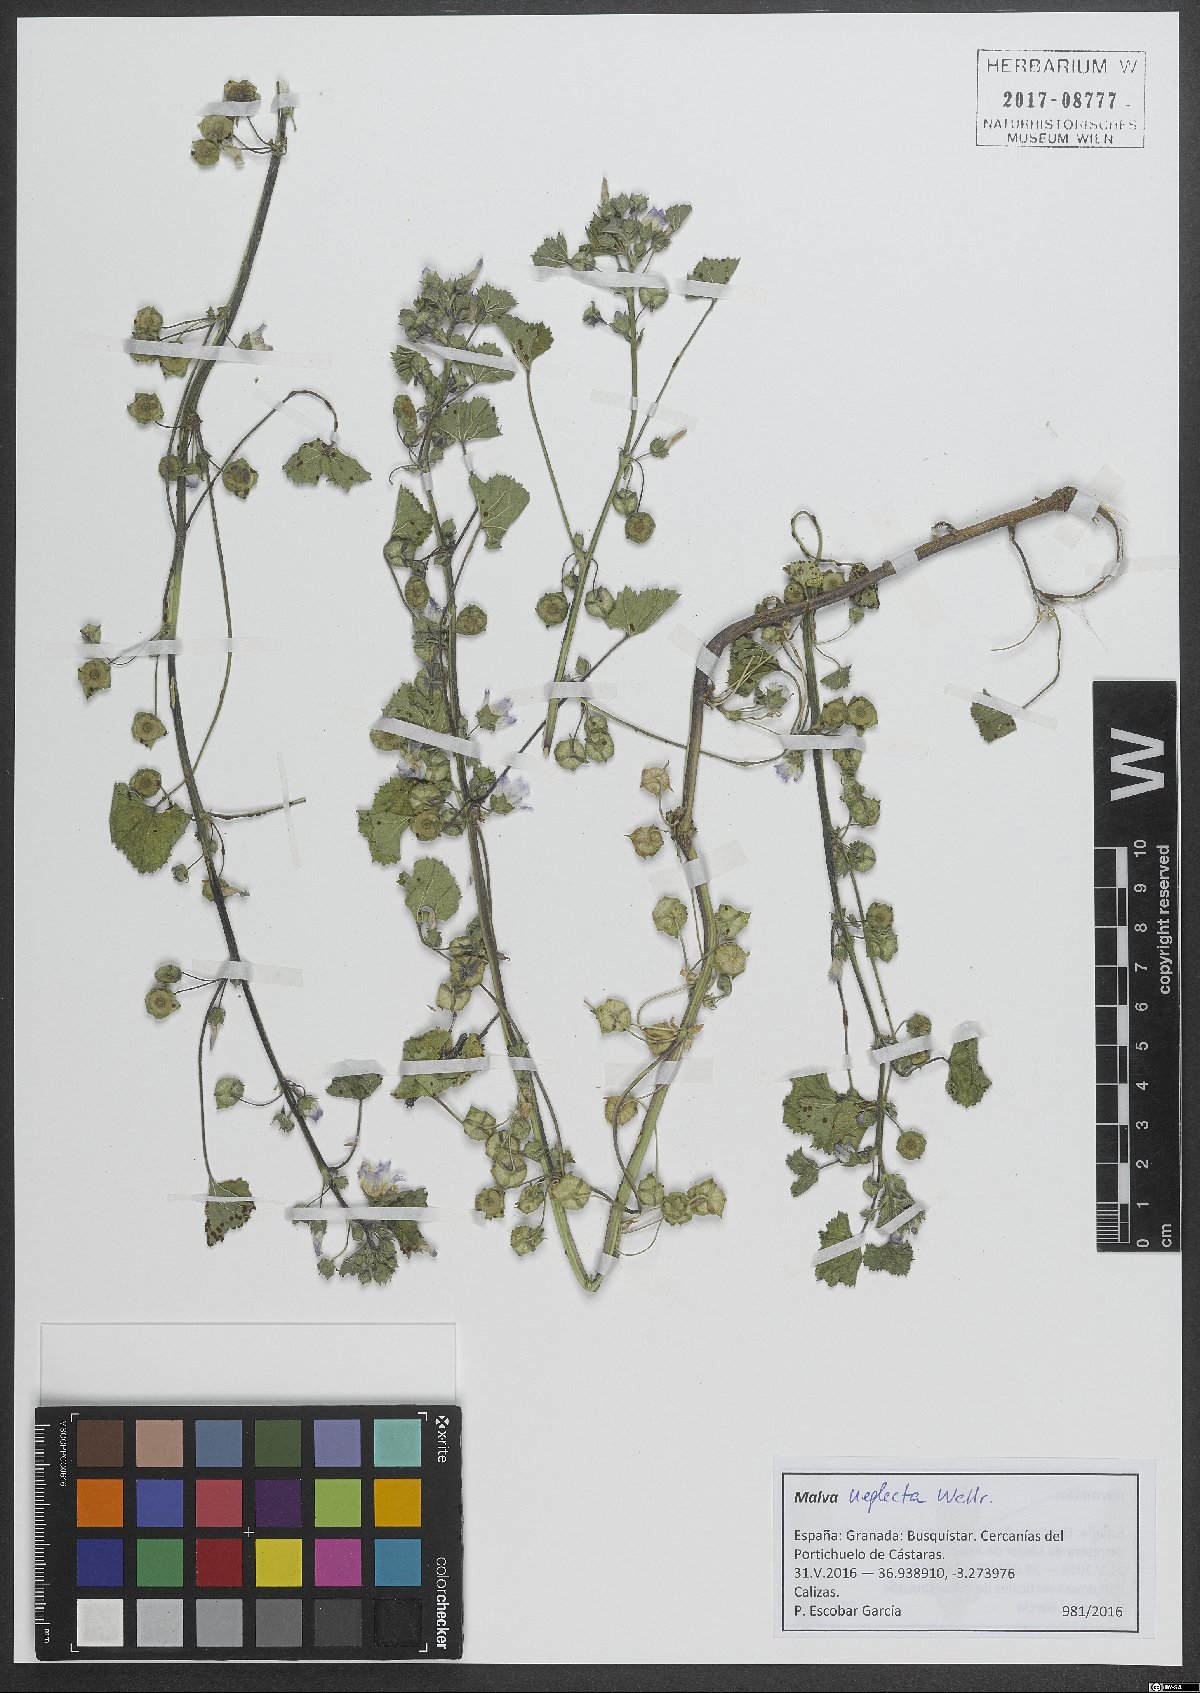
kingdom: Plantae
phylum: Tracheophyta
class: Magnoliopsida
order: Malvales
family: Malvaceae
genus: Malva
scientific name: Malva neglecta
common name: Common mallow
